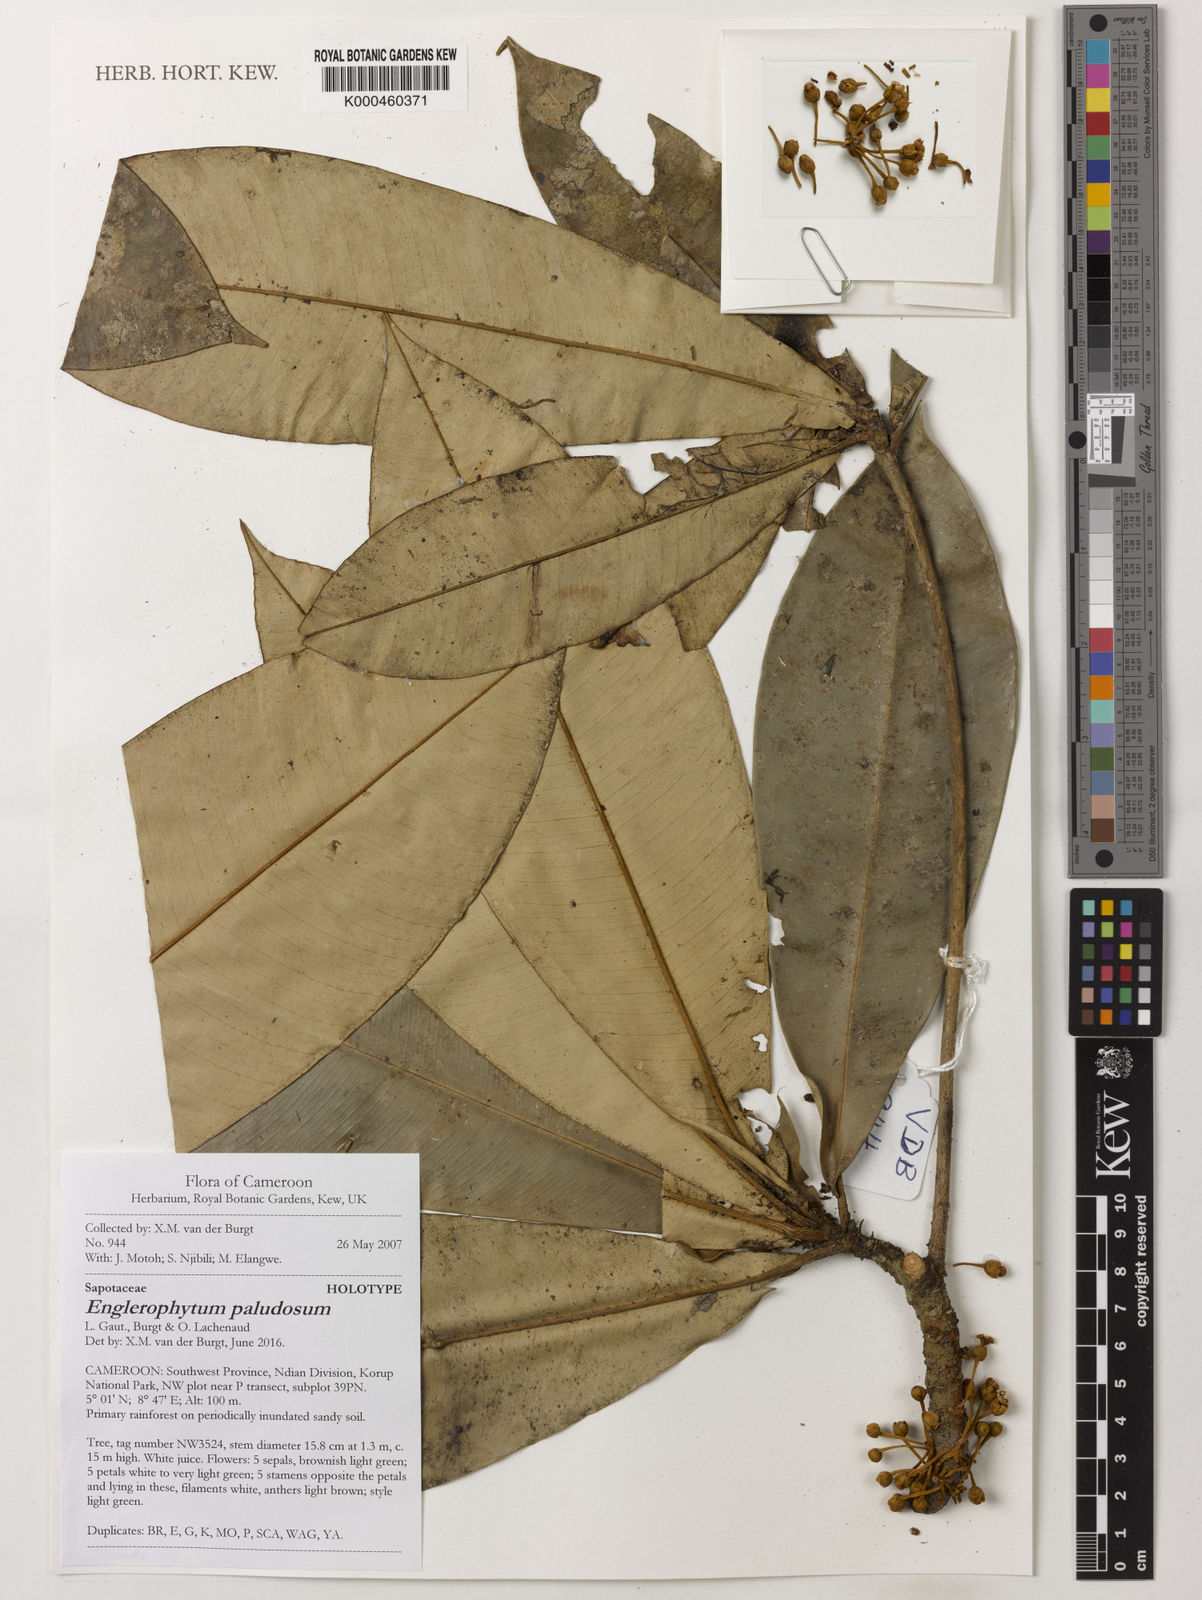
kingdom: Plantae
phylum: Tracheophyta
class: Magnoliopsida
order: Ericales
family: Sapotaceae
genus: Englerophytum
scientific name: Englerophytum
